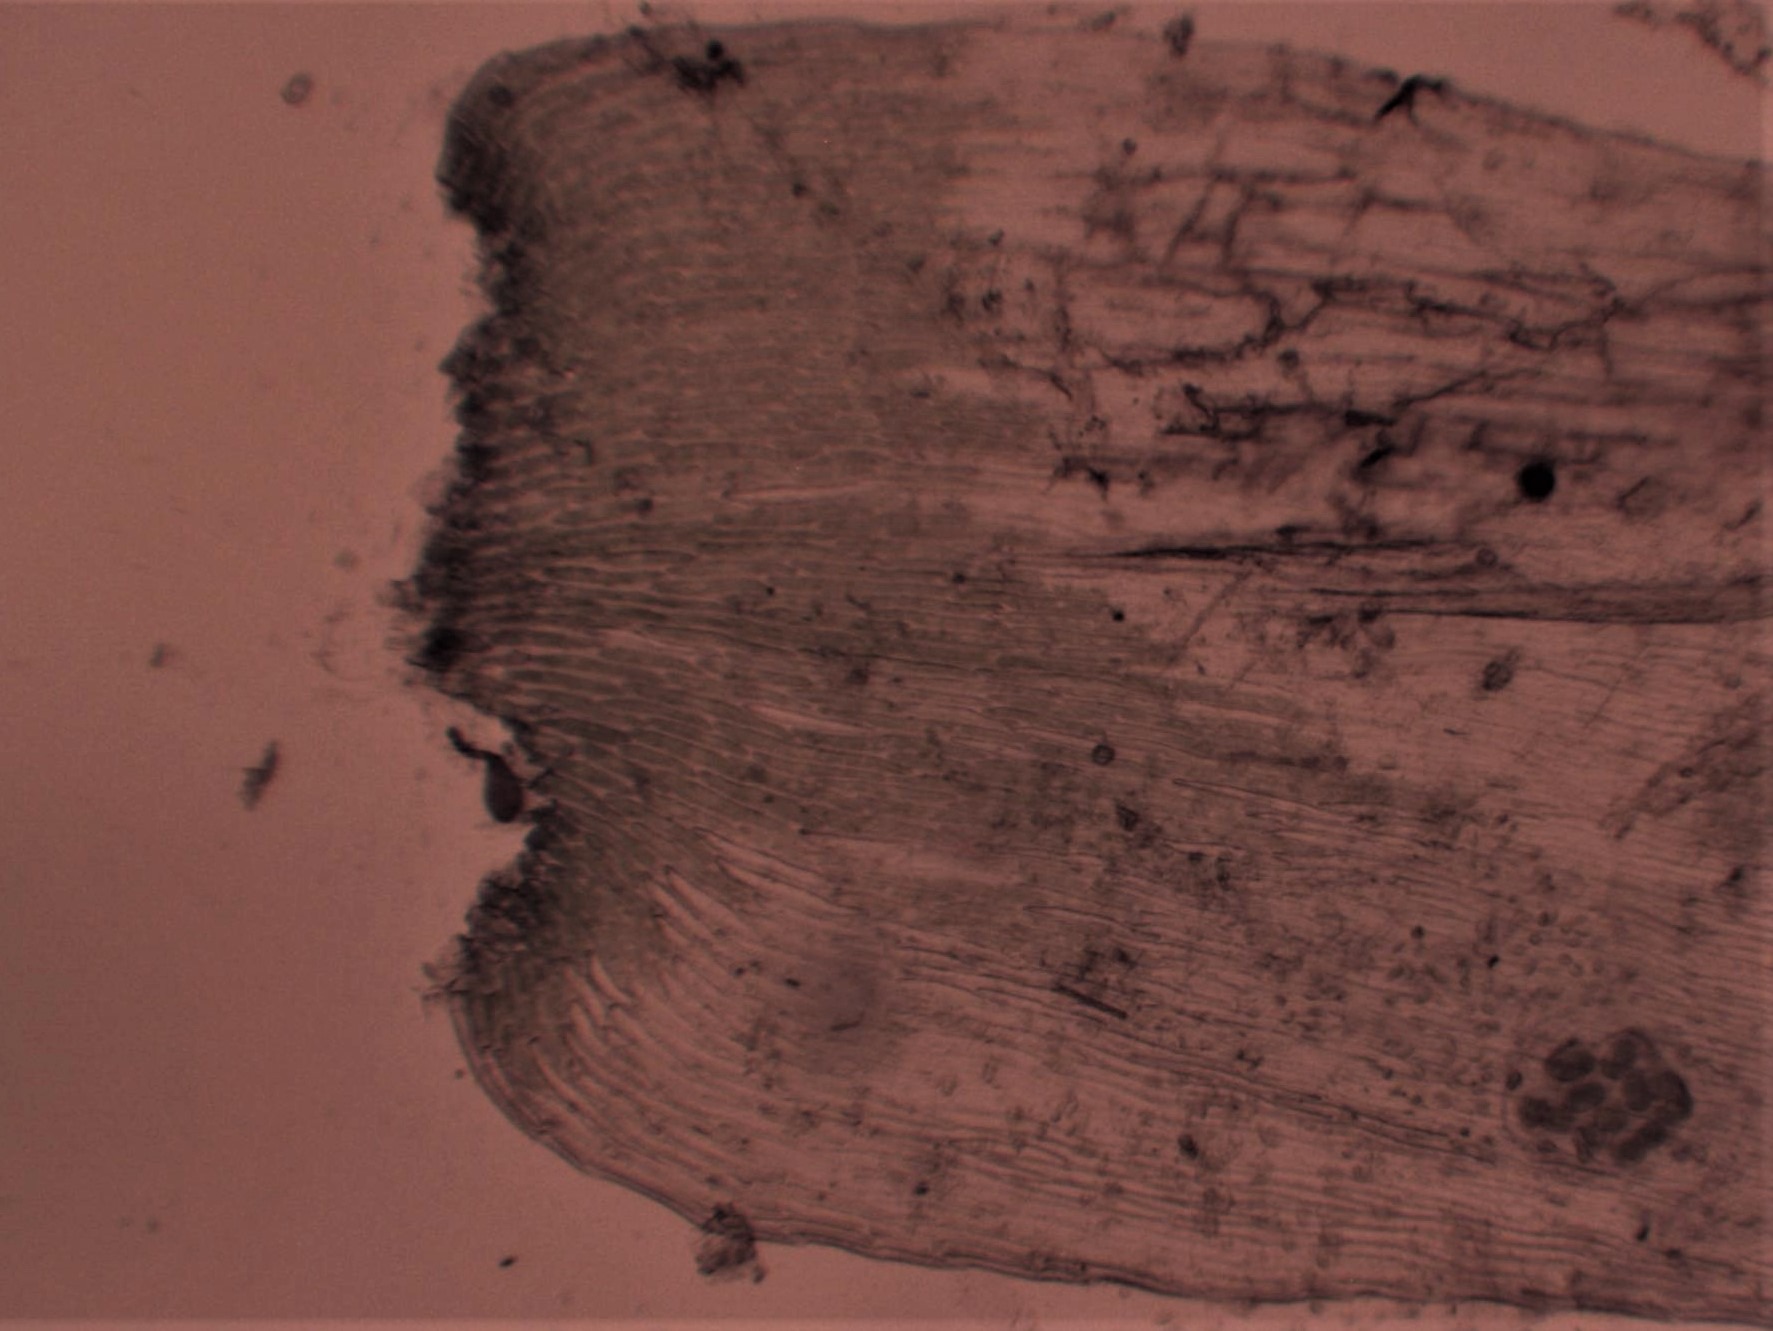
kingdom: Plantae
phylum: Bryophyta
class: Bryopsida
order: Hypnales
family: Plagiotheciaceae
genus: Herzogiella
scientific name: Herzogiella seligeri
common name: Stub-pølsekapsel
